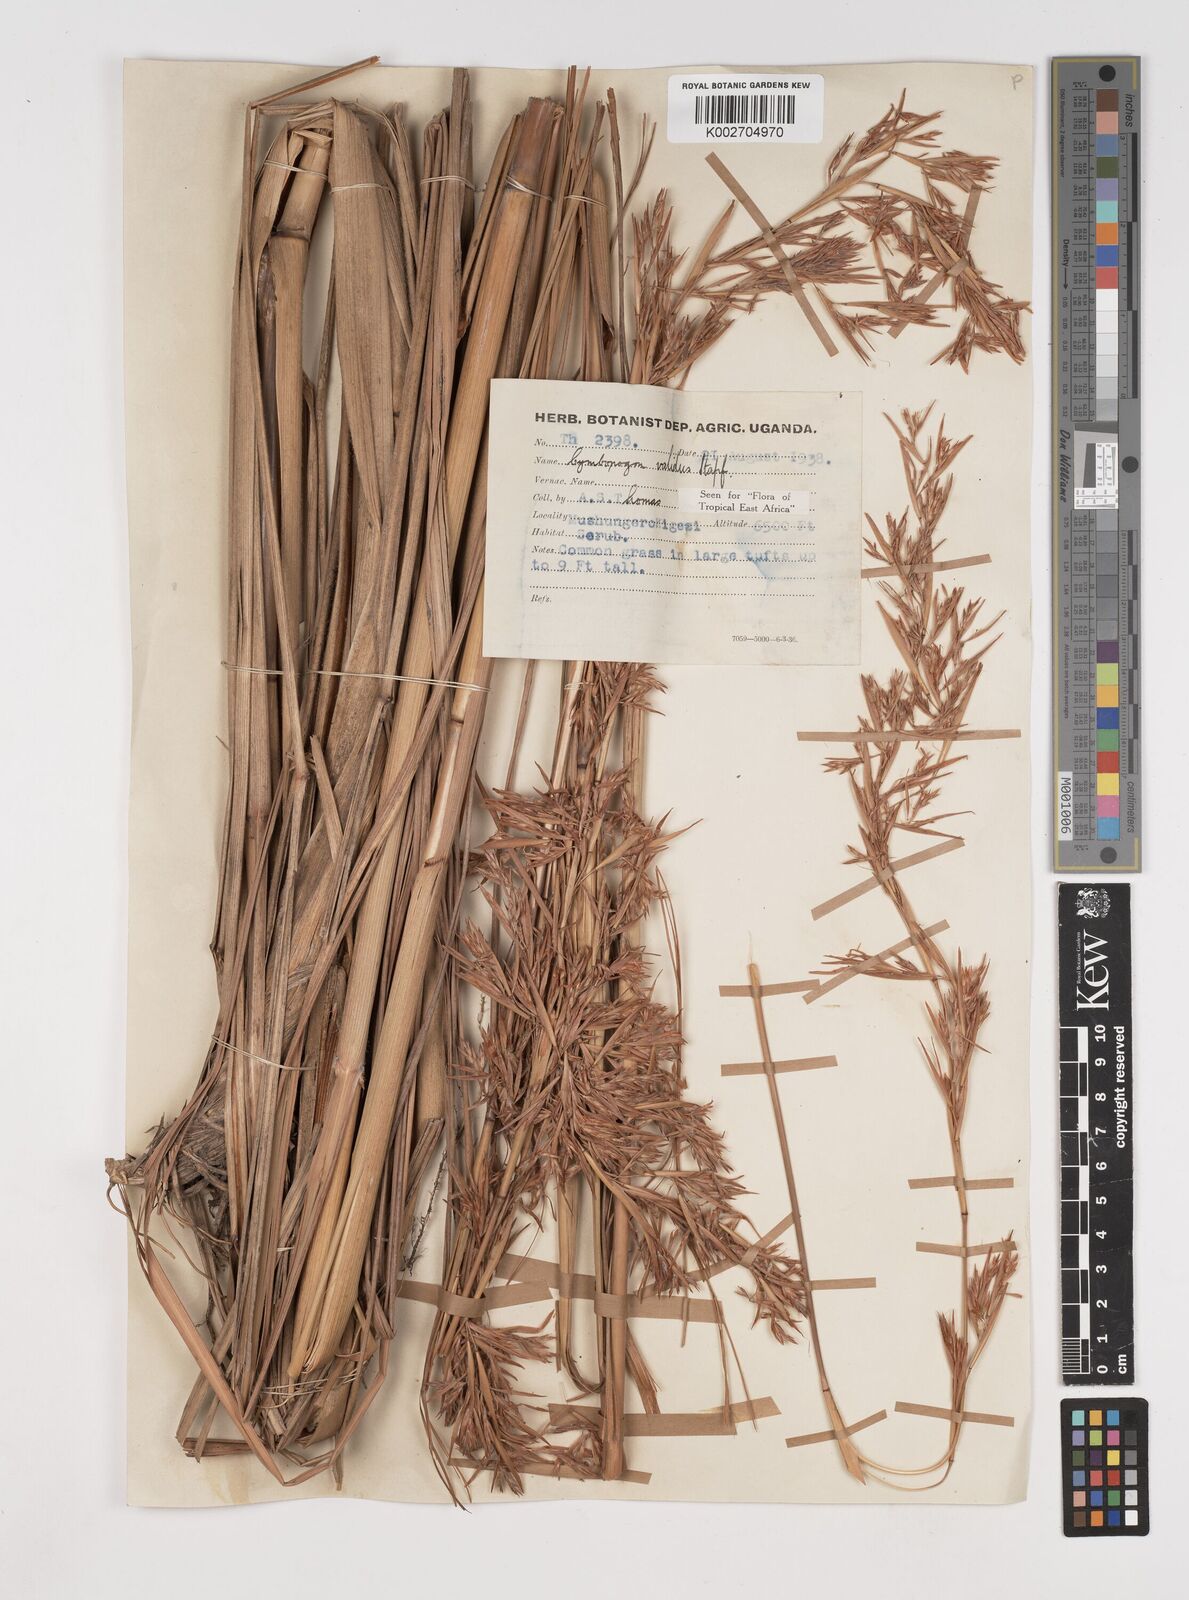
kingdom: Plantae
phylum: Tracheophyta
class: Liliopsida
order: Poales
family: Poaceae
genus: Cymbopogon
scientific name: Cymbopogon nardus
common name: Giant turpentine grass
